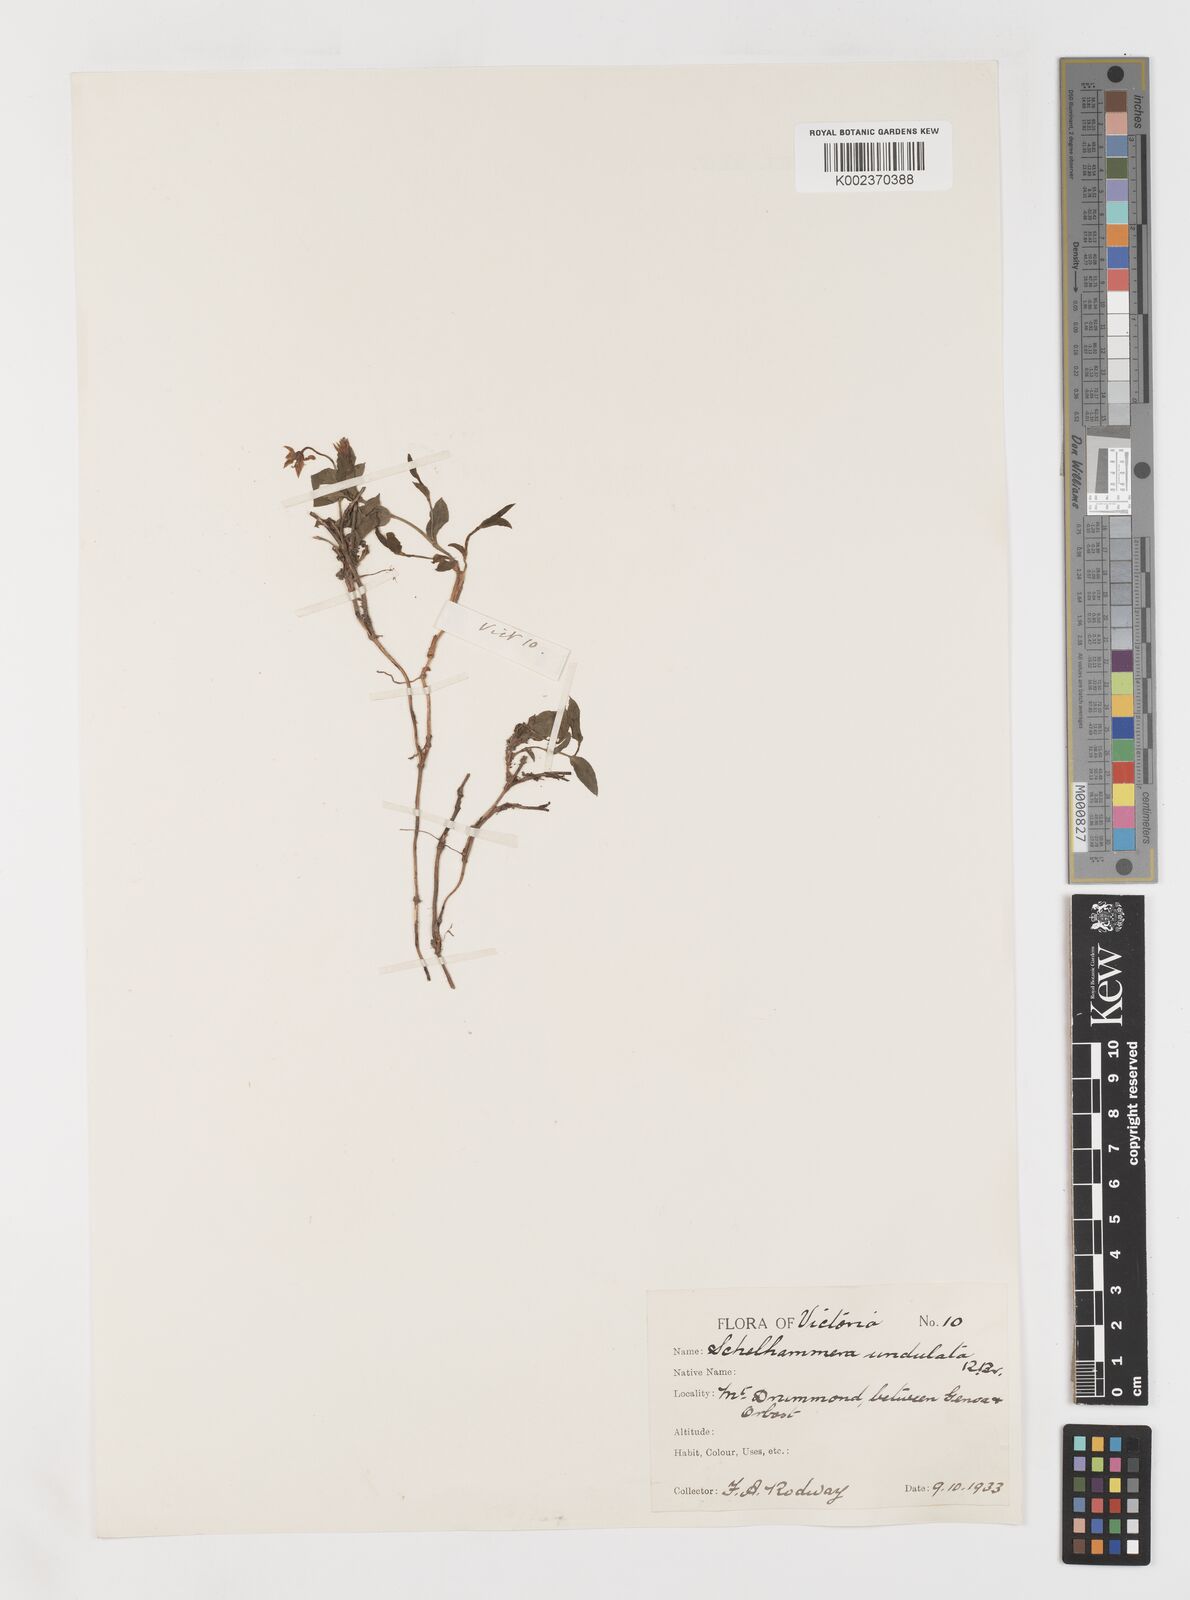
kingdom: Plantae
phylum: Tracheophyta
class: Liliopsida
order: Liliales
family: Colchicaceae
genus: Schelhammera
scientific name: Schelhammera undulata
